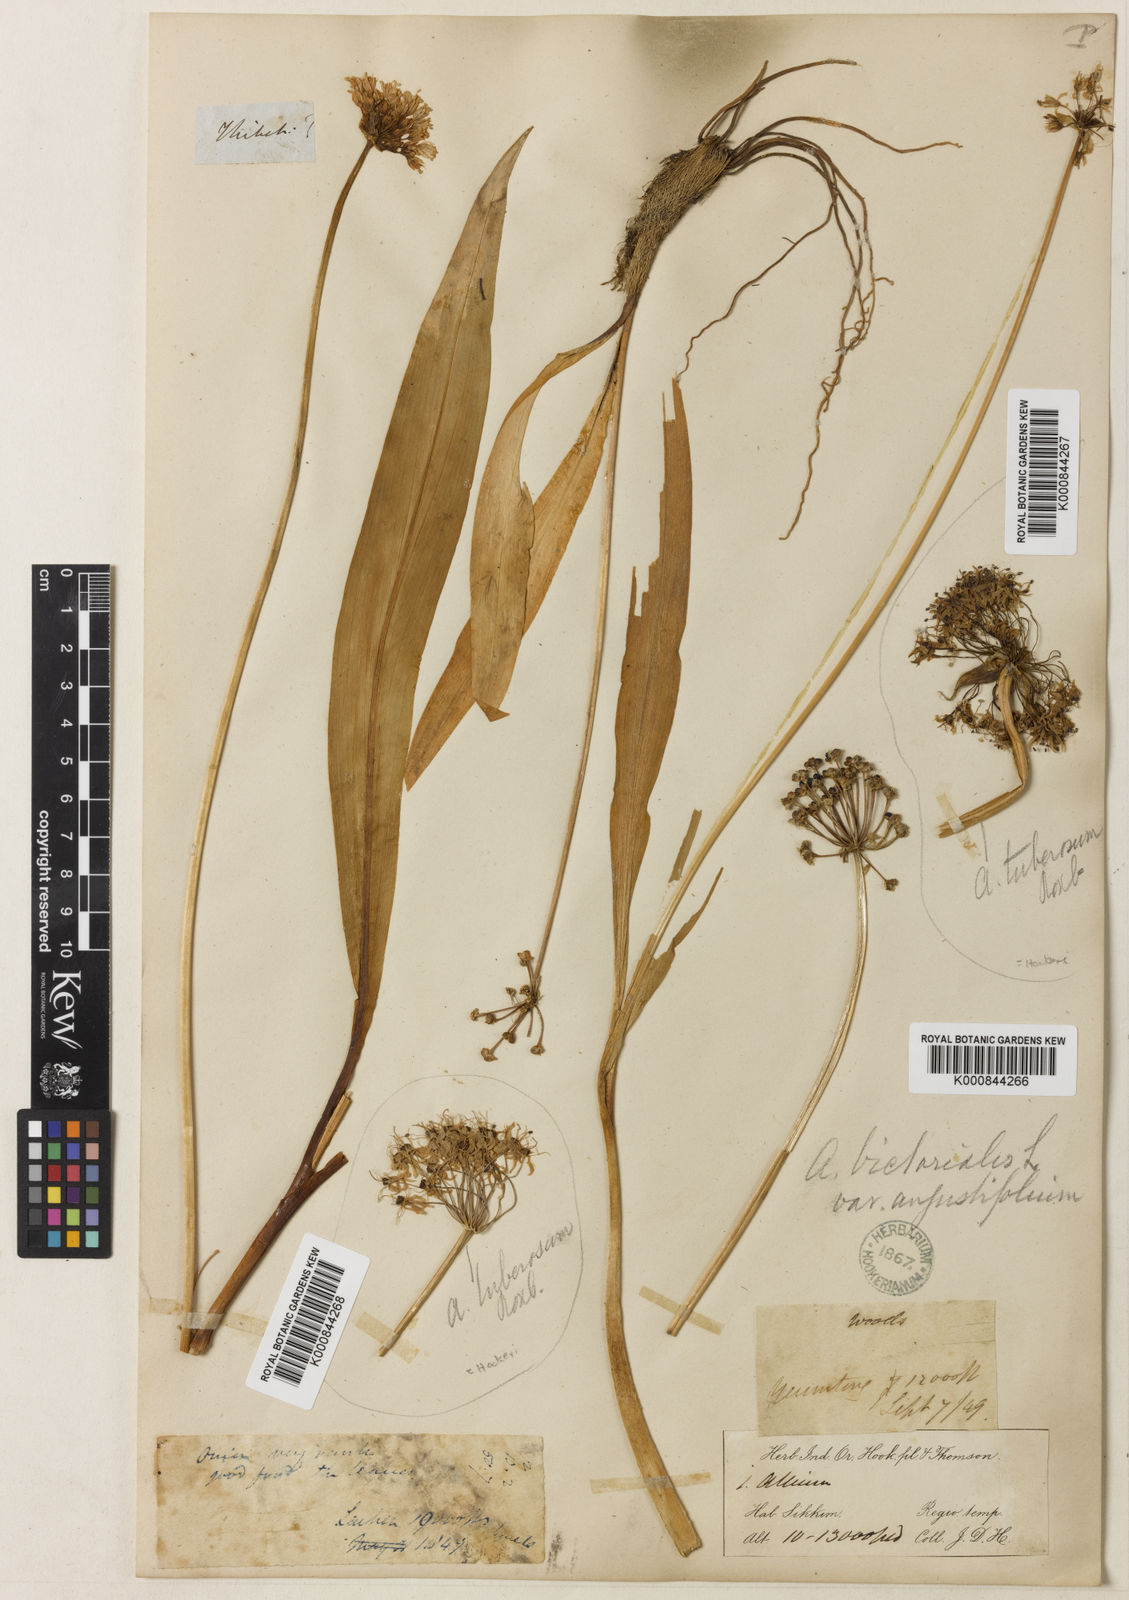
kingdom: Plantae
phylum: Tracheophyta
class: Liliopsida
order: Asparagales
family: Amaryllidaceae
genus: Allium
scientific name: Allium victorialis
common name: Alpine leek
